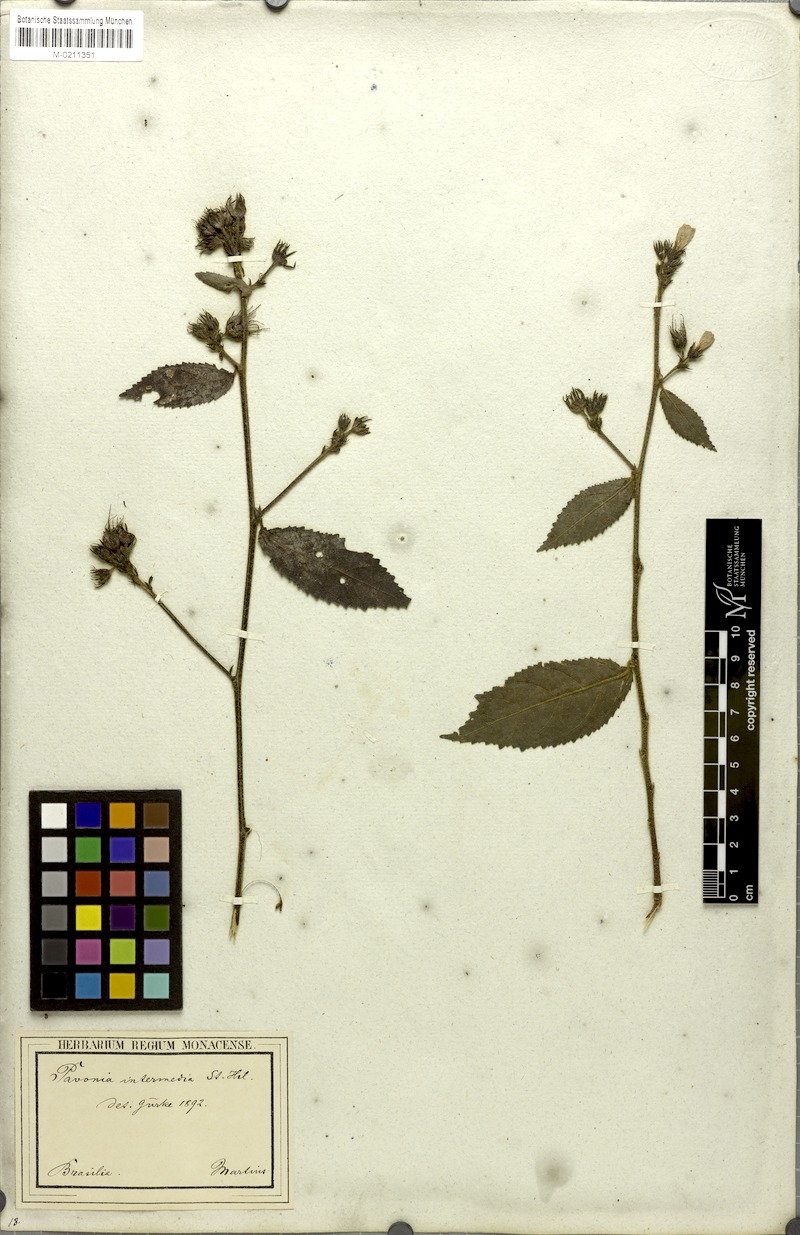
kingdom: Plantae
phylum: Tracheophyta
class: Magnoliopsida
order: Malvales
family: Malvaceae
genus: Pavonia
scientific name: Pavonia intermedia
